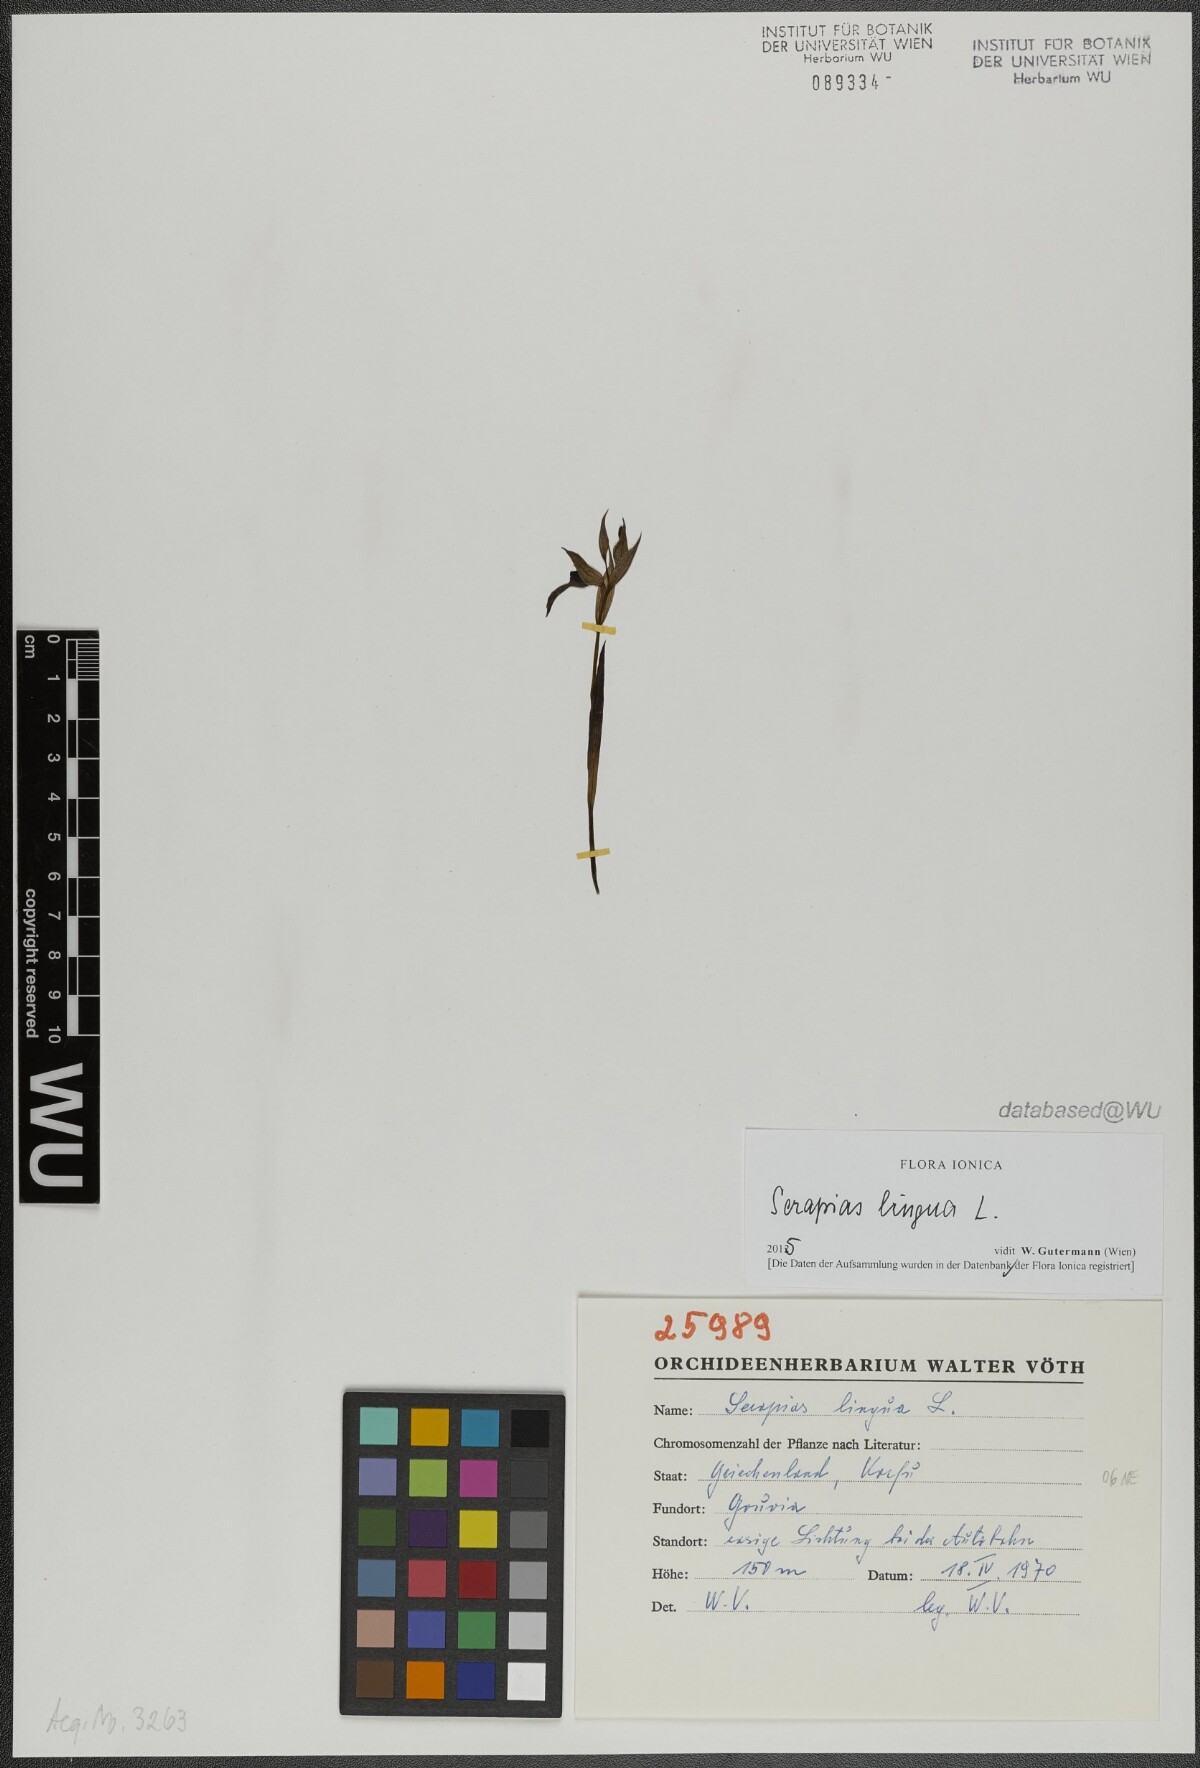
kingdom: Plantae
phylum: Tracheophyta
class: Liliopsida
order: Asparagales
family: Orchidaceae
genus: Serapias
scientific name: Serapias lingua
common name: Tongue-orchid
